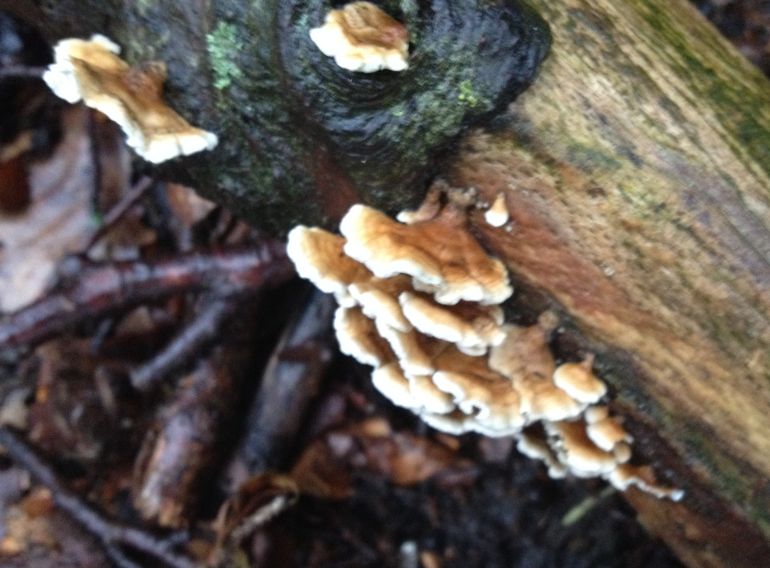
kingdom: Fungi
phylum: Basidiomycota
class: Agaricomycetes
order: Amylocorticiales
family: Amylocorticiaceae
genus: Plicaturopsis
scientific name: Plicaturopsis crispa
